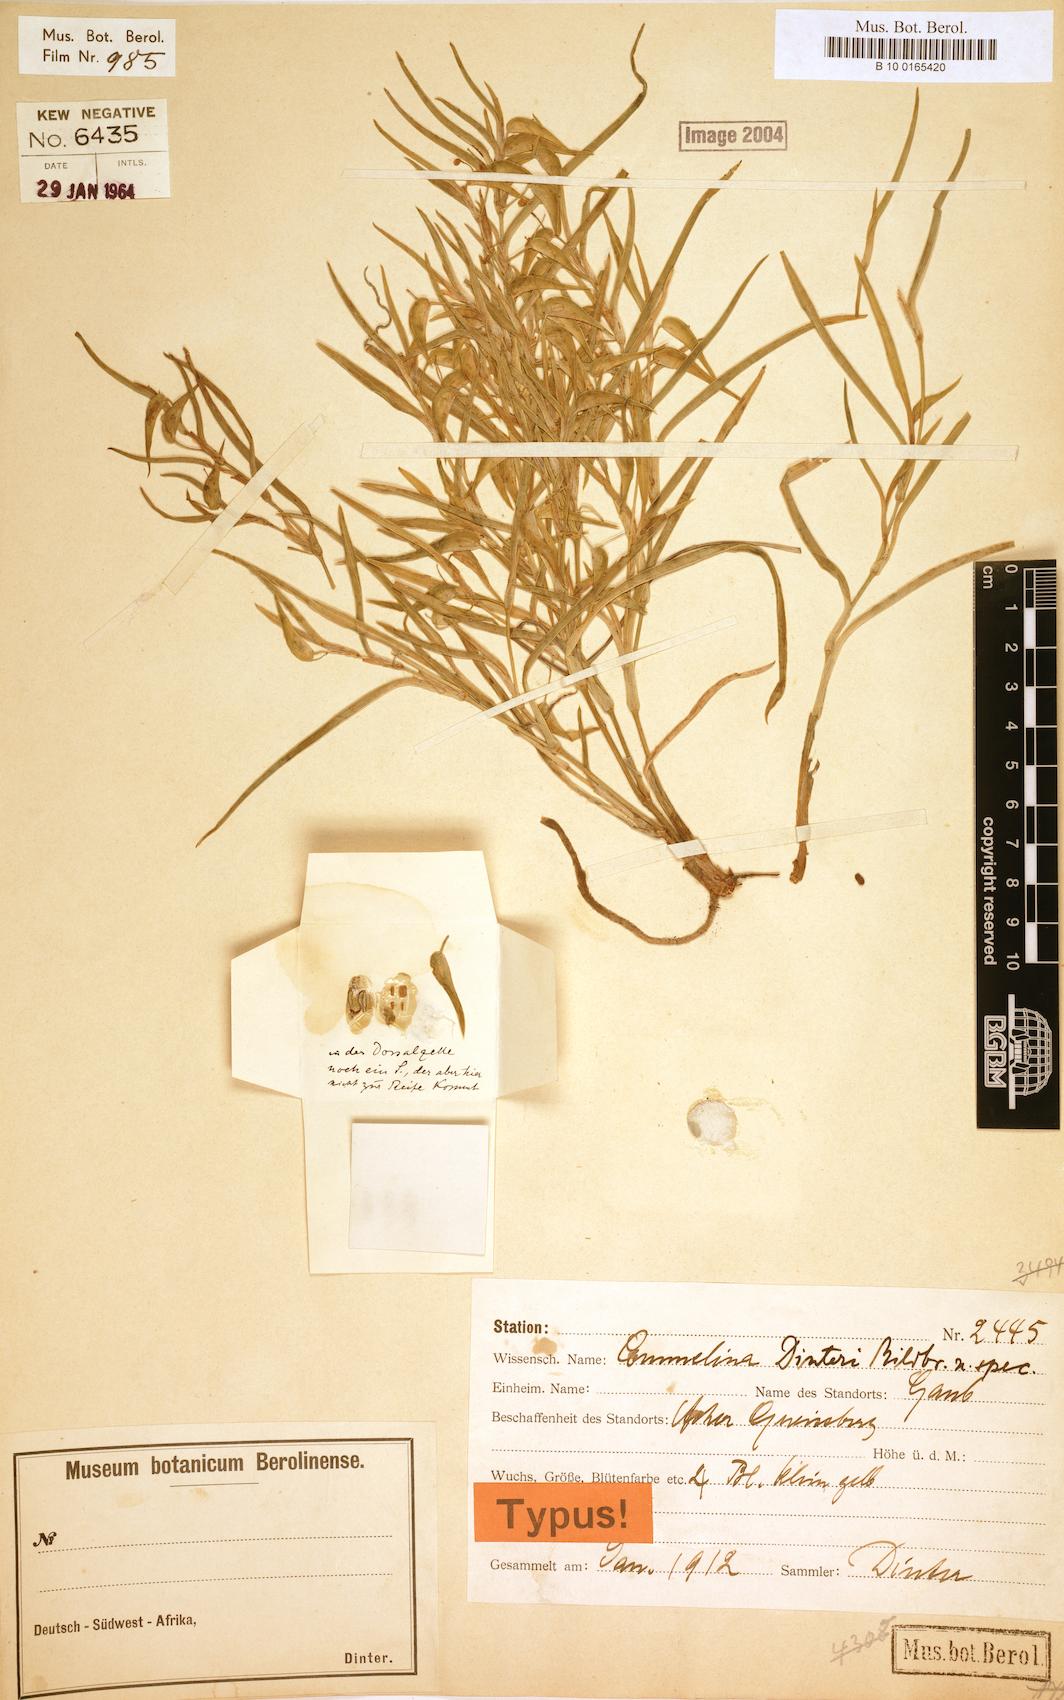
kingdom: Plantae
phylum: Tracheophyta
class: Liliopsida
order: Commelinales
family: Commelinaceae
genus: Commelina
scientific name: Commelina africana
